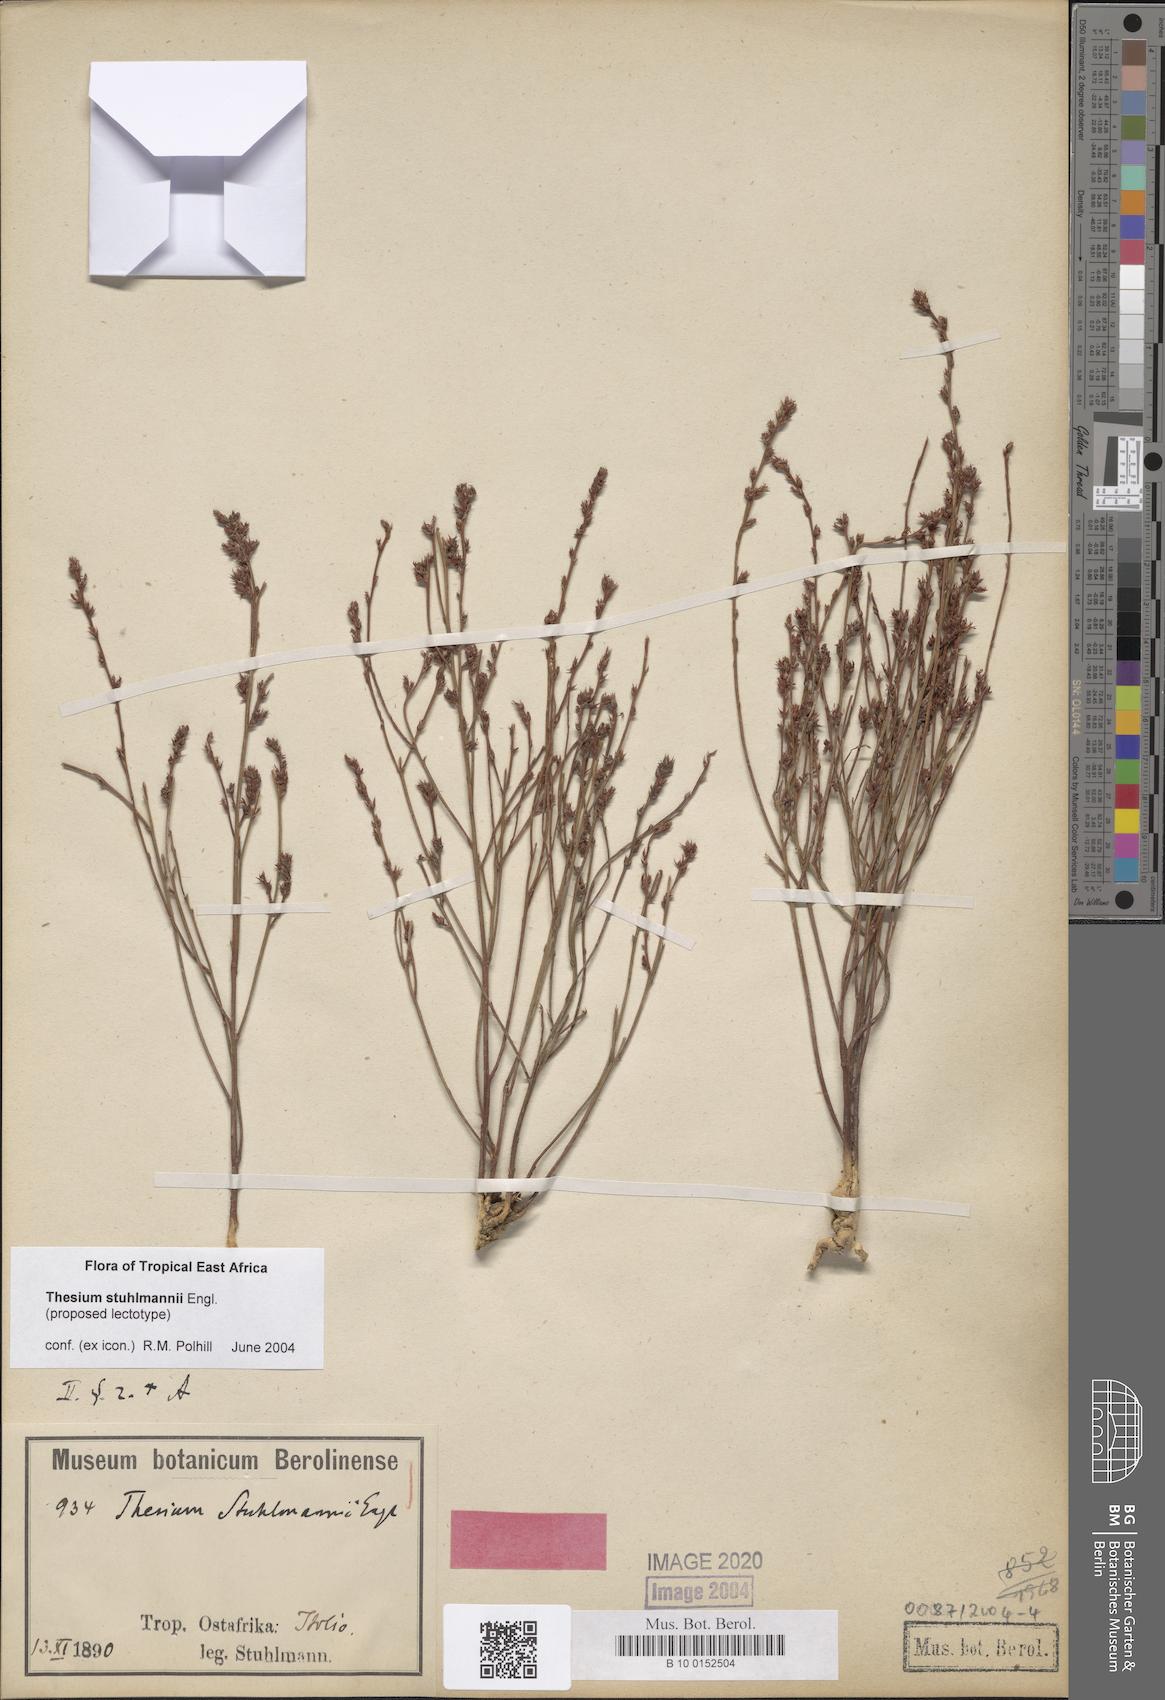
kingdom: Plantae
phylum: Tracheophyta
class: Magnoliopsida
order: Santalales
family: Thesiaceae
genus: Thesium
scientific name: Thesium stuhlmannii
